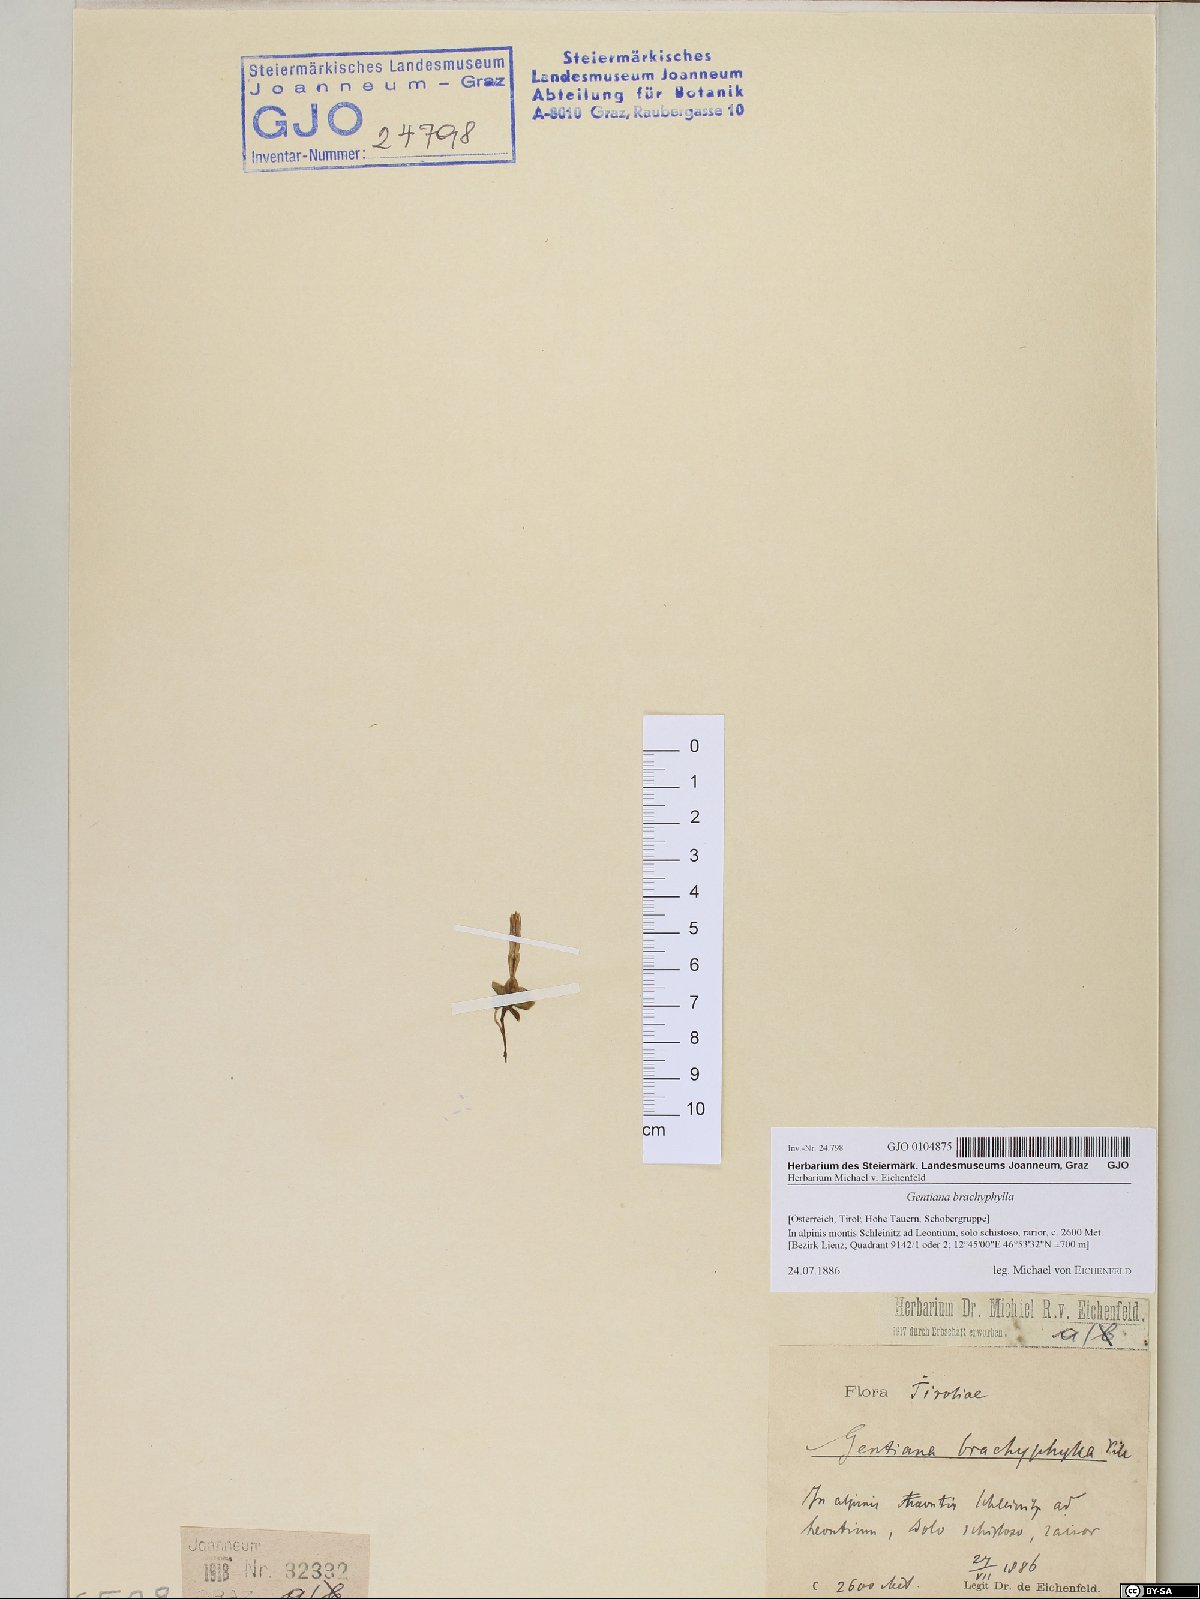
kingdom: Plantae
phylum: Tracheophyta
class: Magnoliopsida
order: Gentianales
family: Gentianaceae
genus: Gentiana
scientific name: Gentiana brachyphylla
